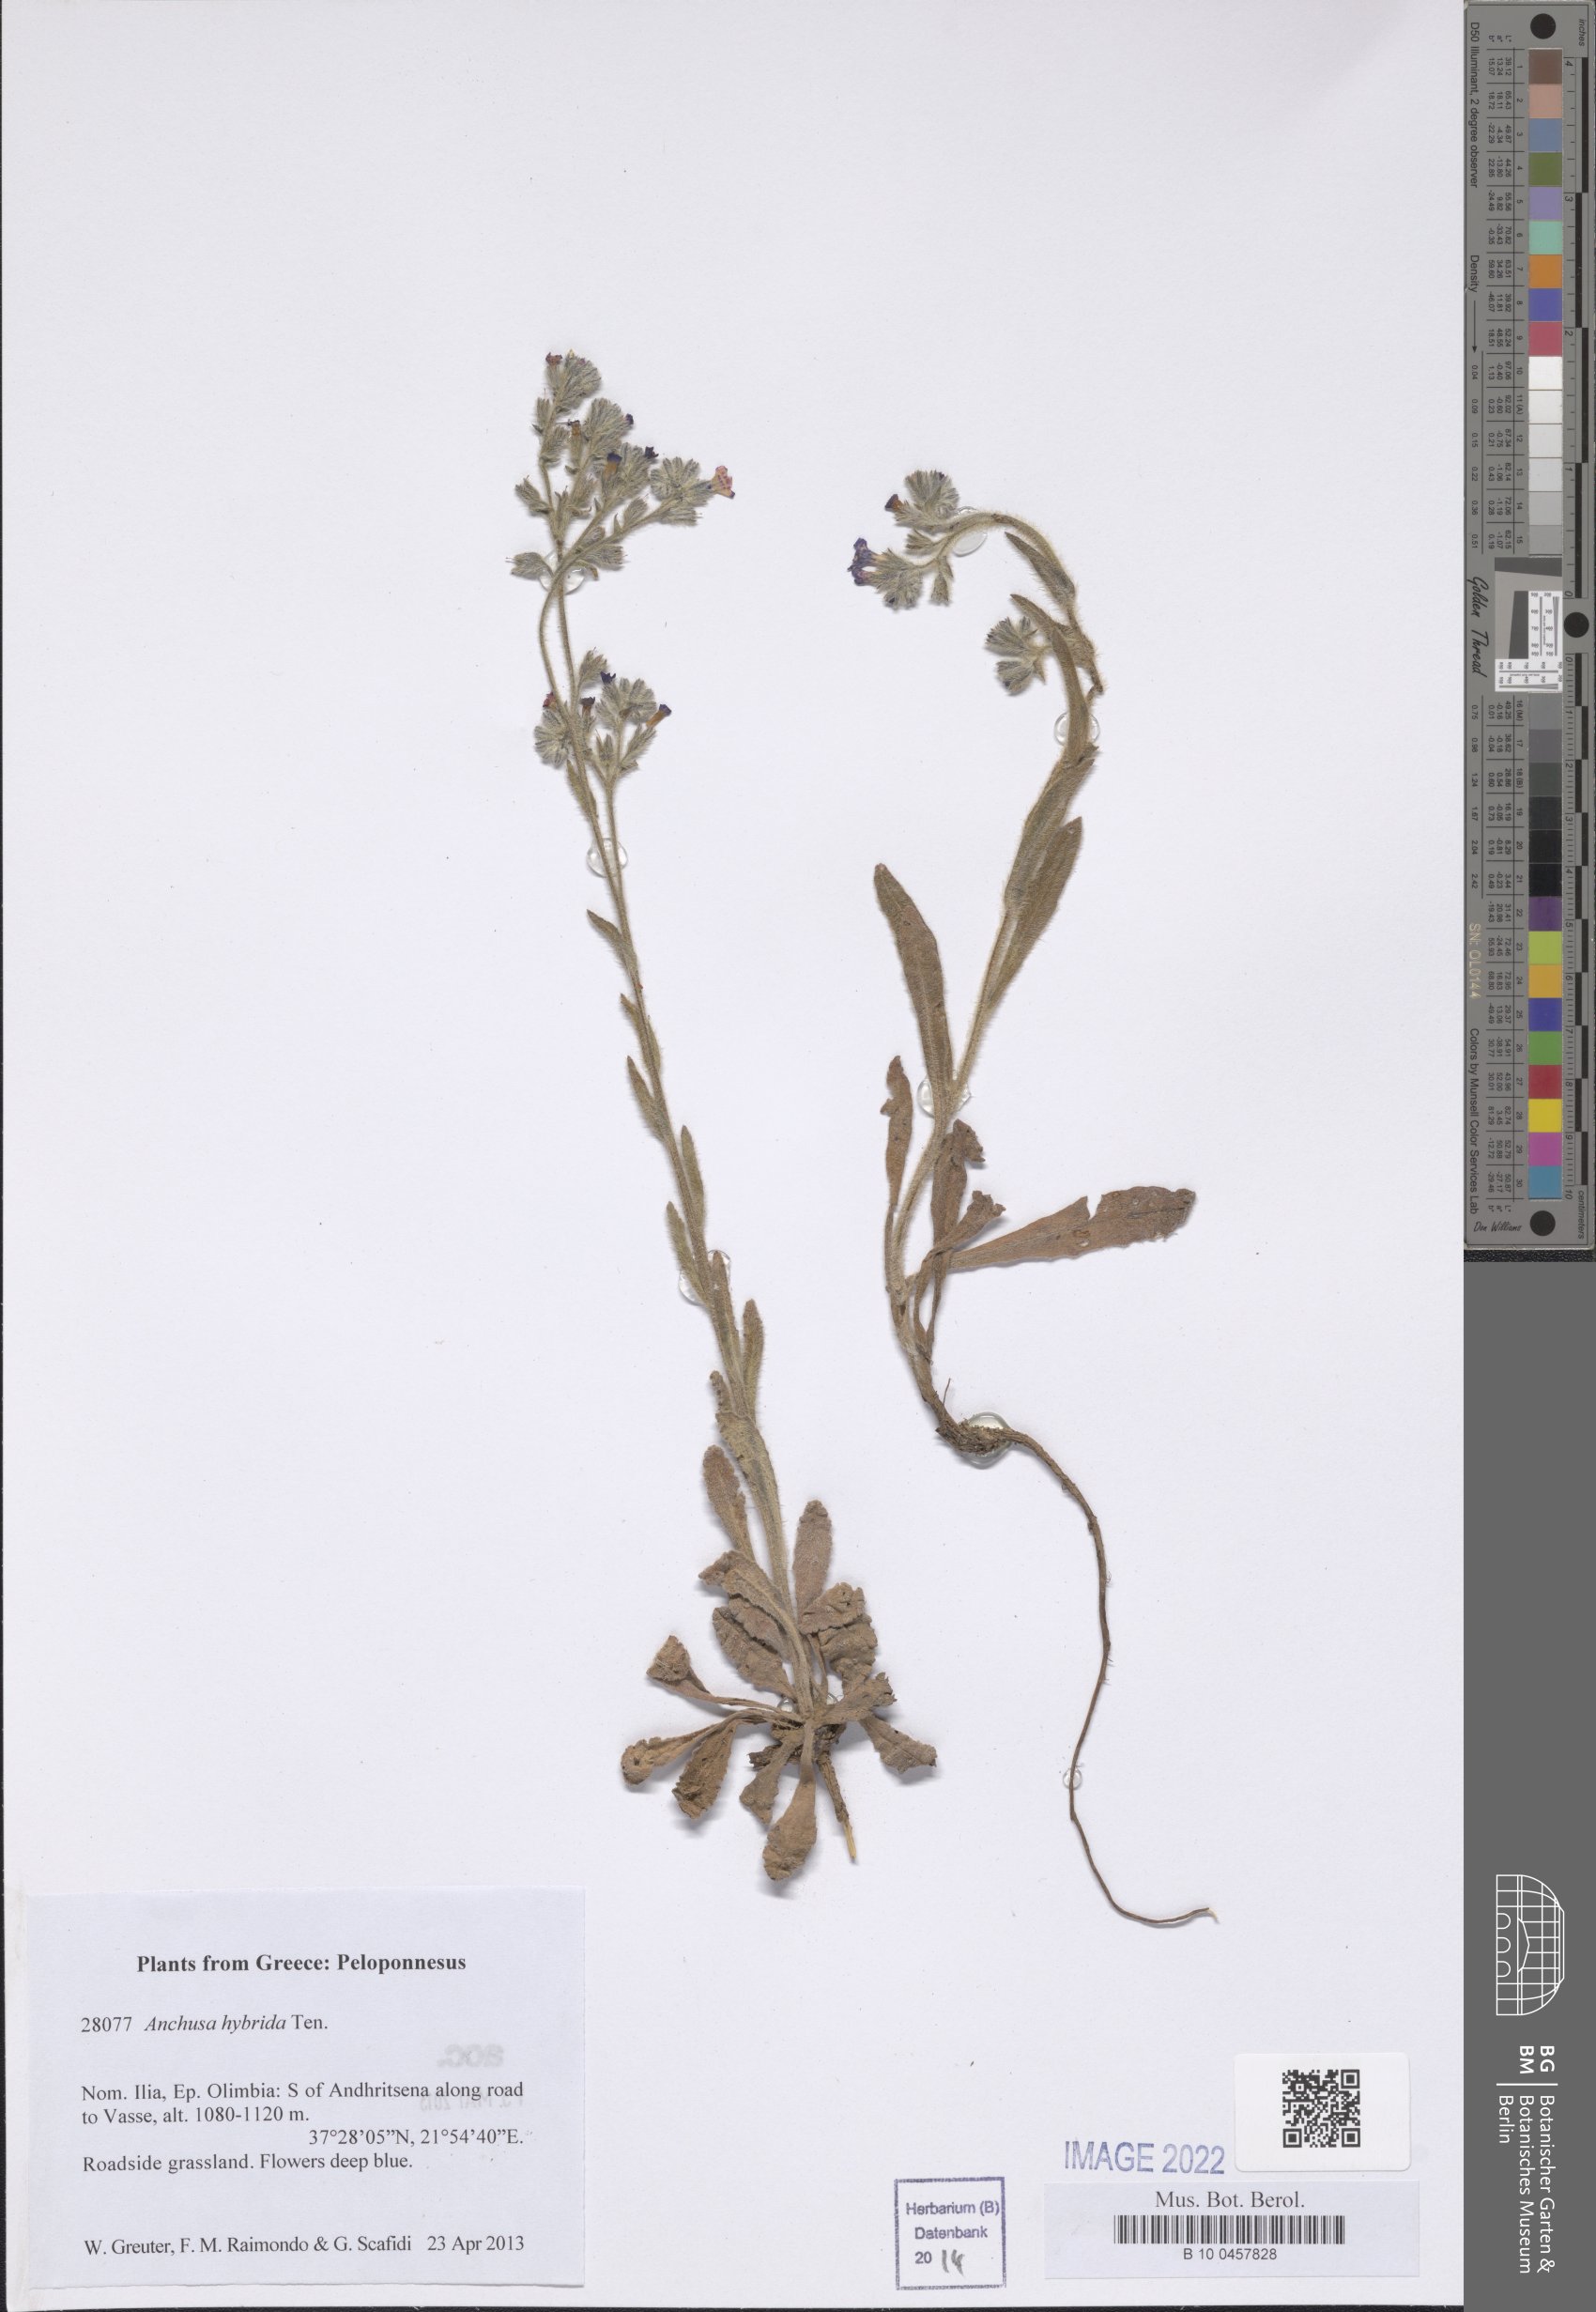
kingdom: Plantae
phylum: Tracheophyta
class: Magnoliopsida
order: Boraginales
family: Boraginaceae
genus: Anchusa
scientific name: Anchusa hybrida
